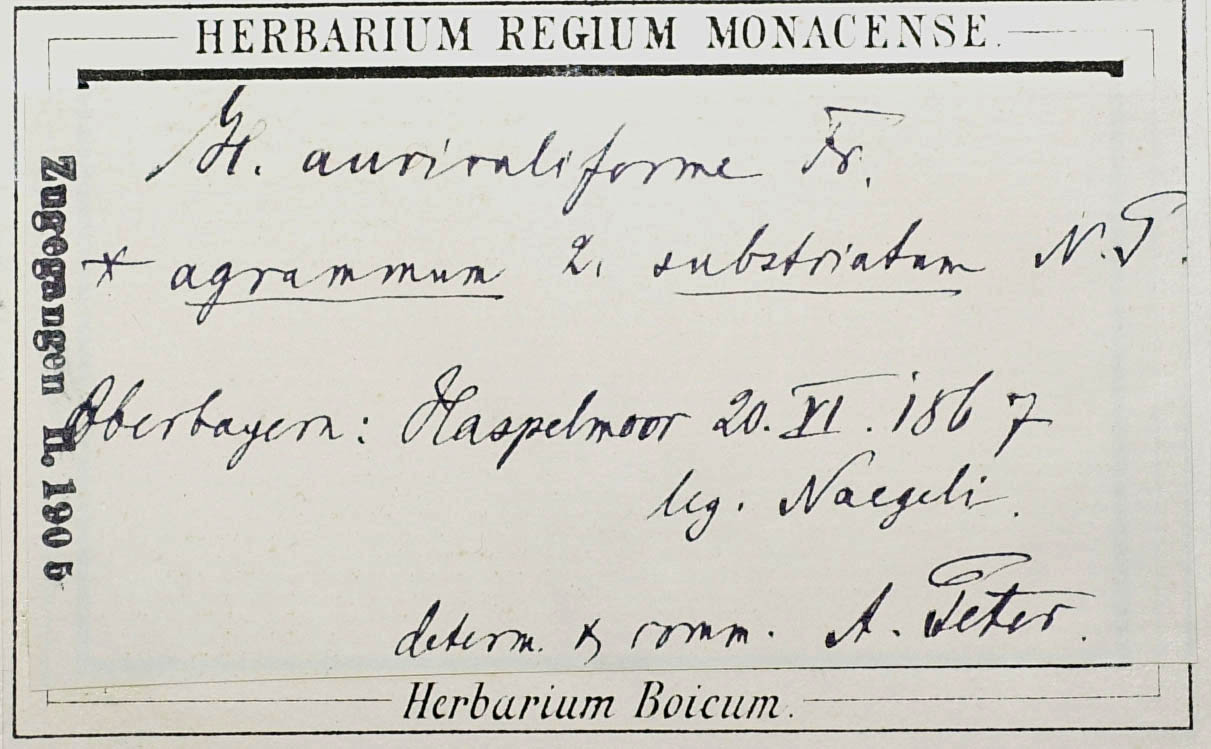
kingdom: Plantae
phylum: Tracheophyta
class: Magnoliopsida
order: Asterales
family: Asteraceae
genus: Pilosella
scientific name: Pilosella auriculiformis
